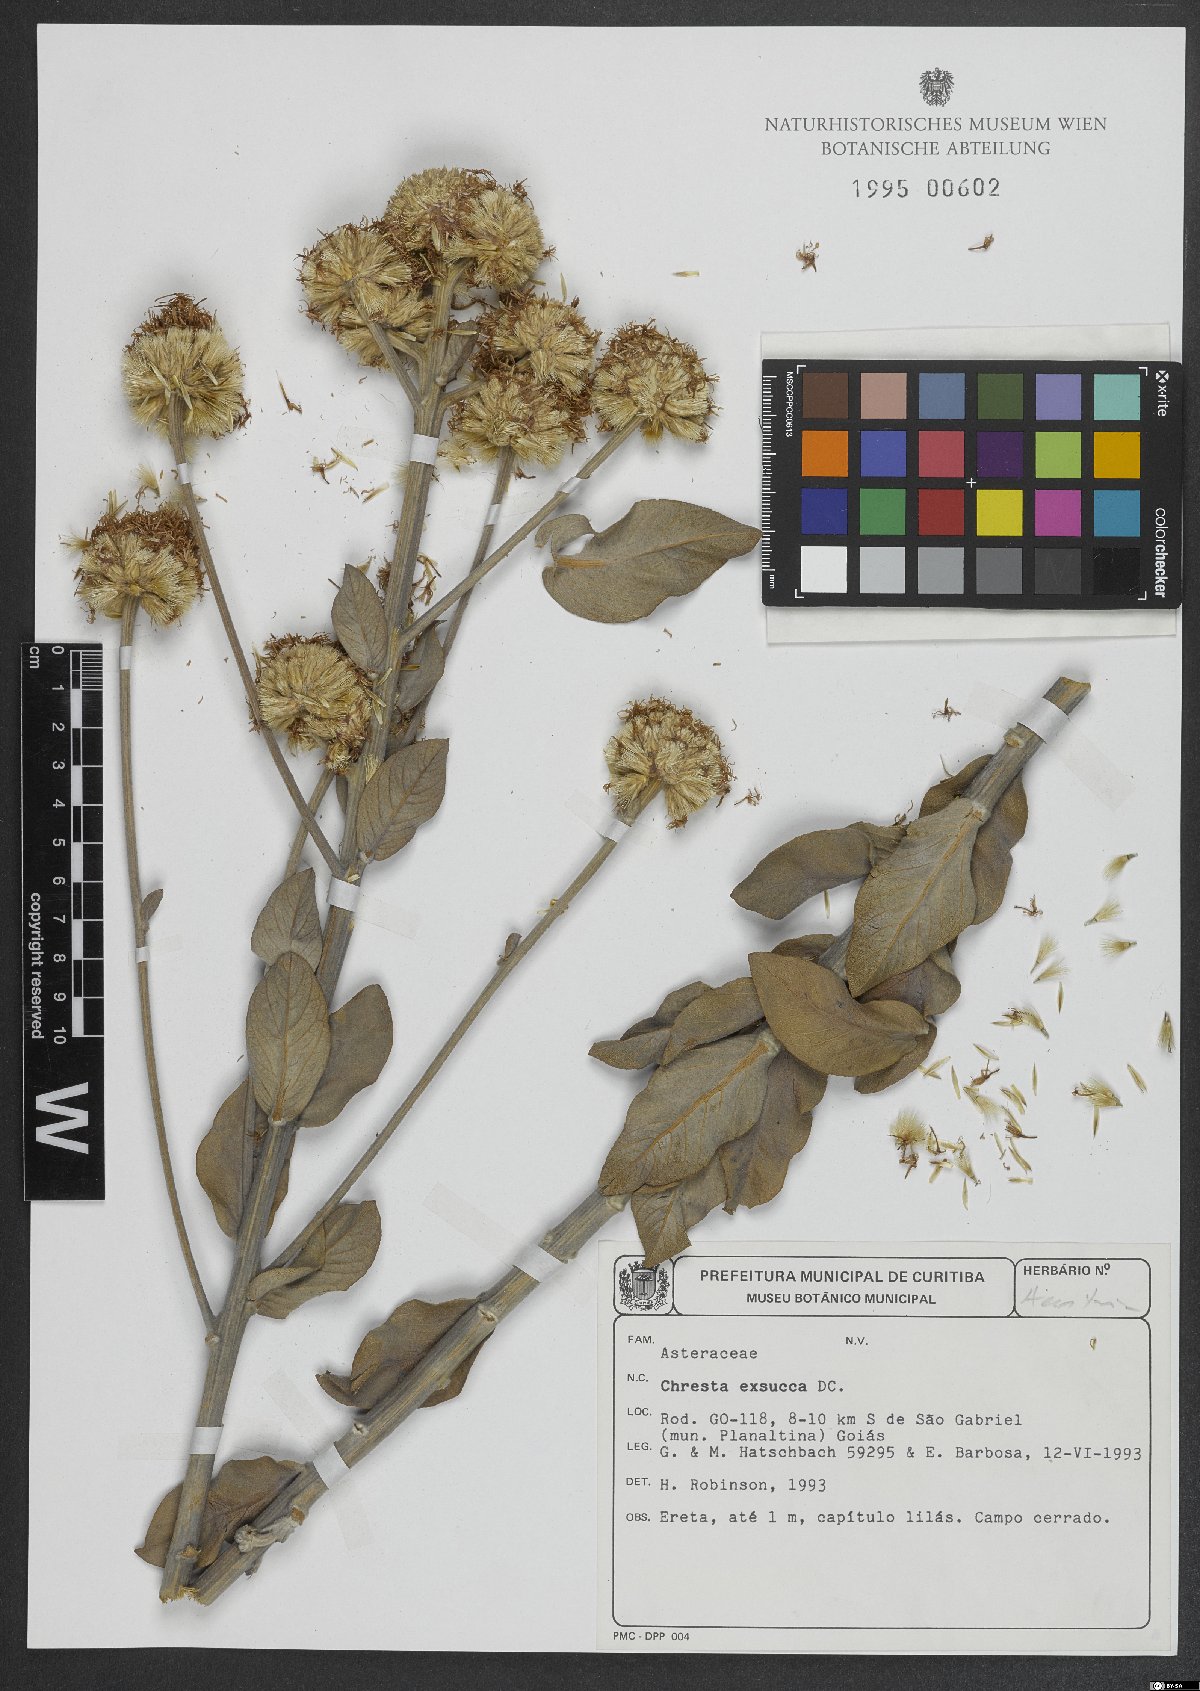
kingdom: Plantae
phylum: Tracheophyta
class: Magnoliopsida
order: Asterales
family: Asteraceae
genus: Chresta
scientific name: Chresta exsucca
